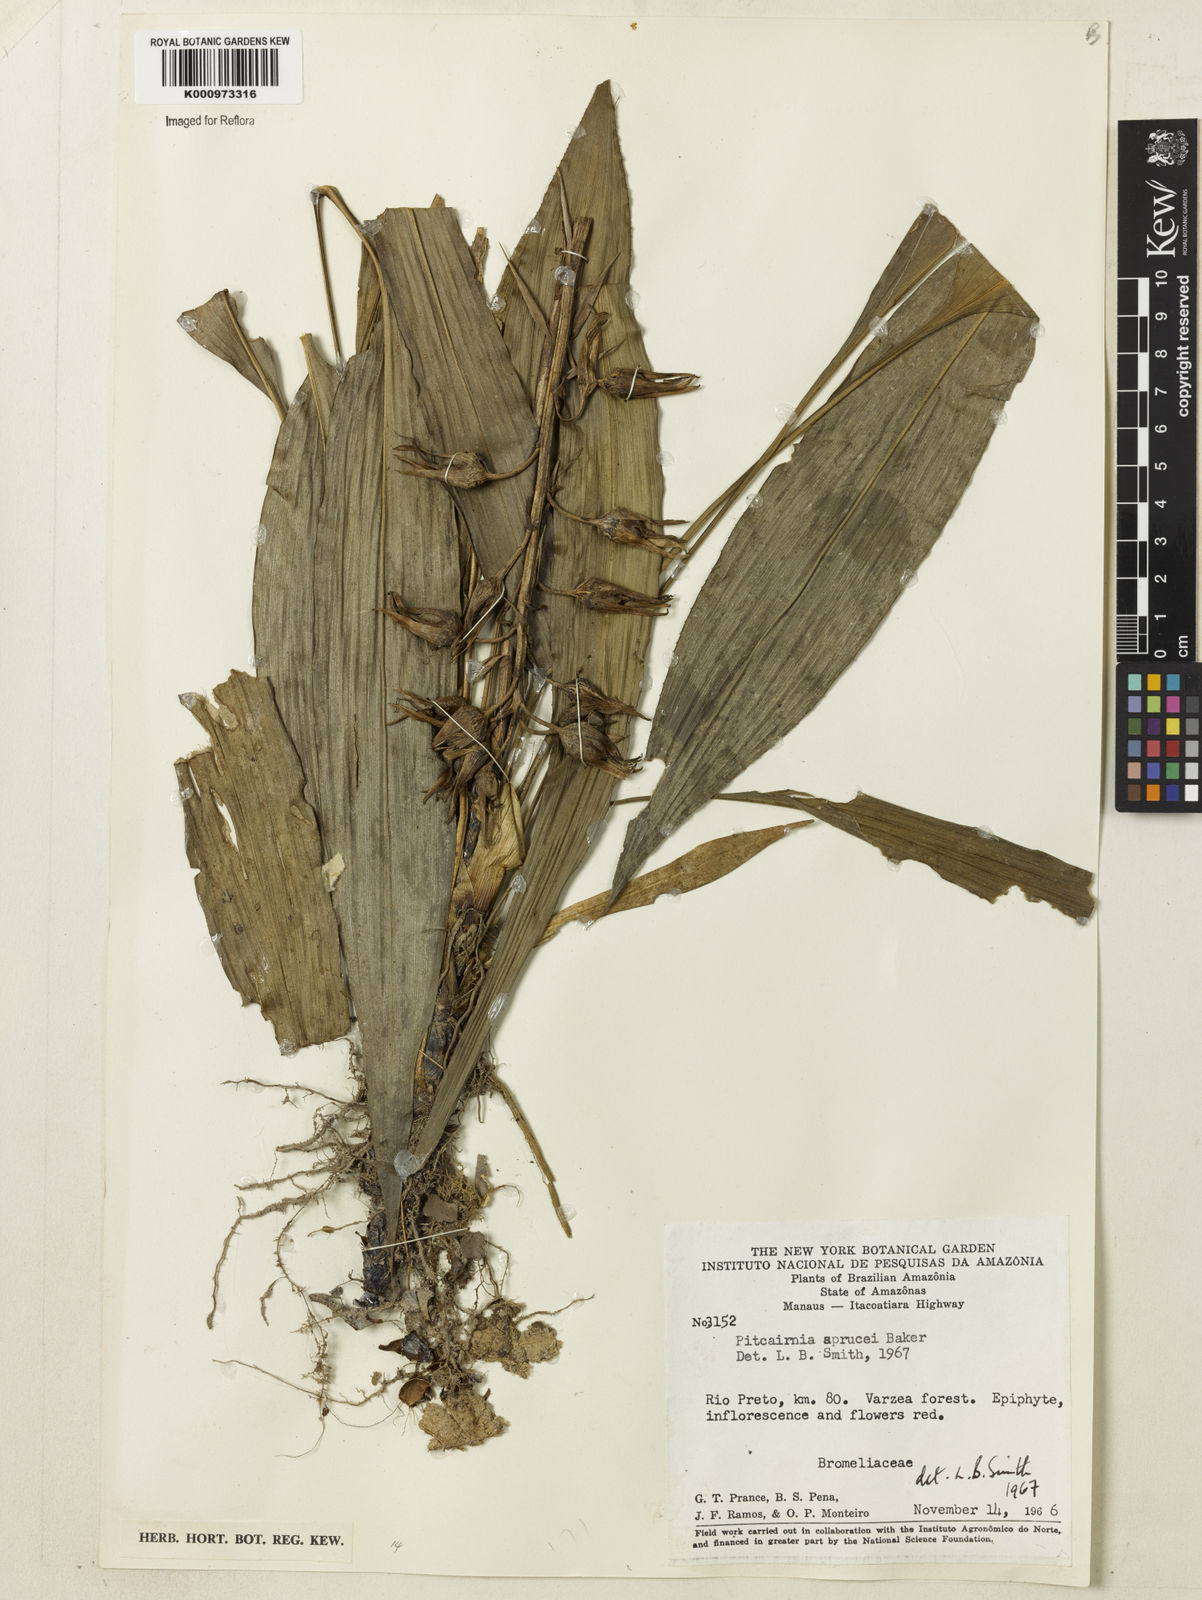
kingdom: Plantae
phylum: Tracheophyta
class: Liliopsida
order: Poales
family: Bromeliaceae
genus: Pitcairnia
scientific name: Pitcairnia sprucei
